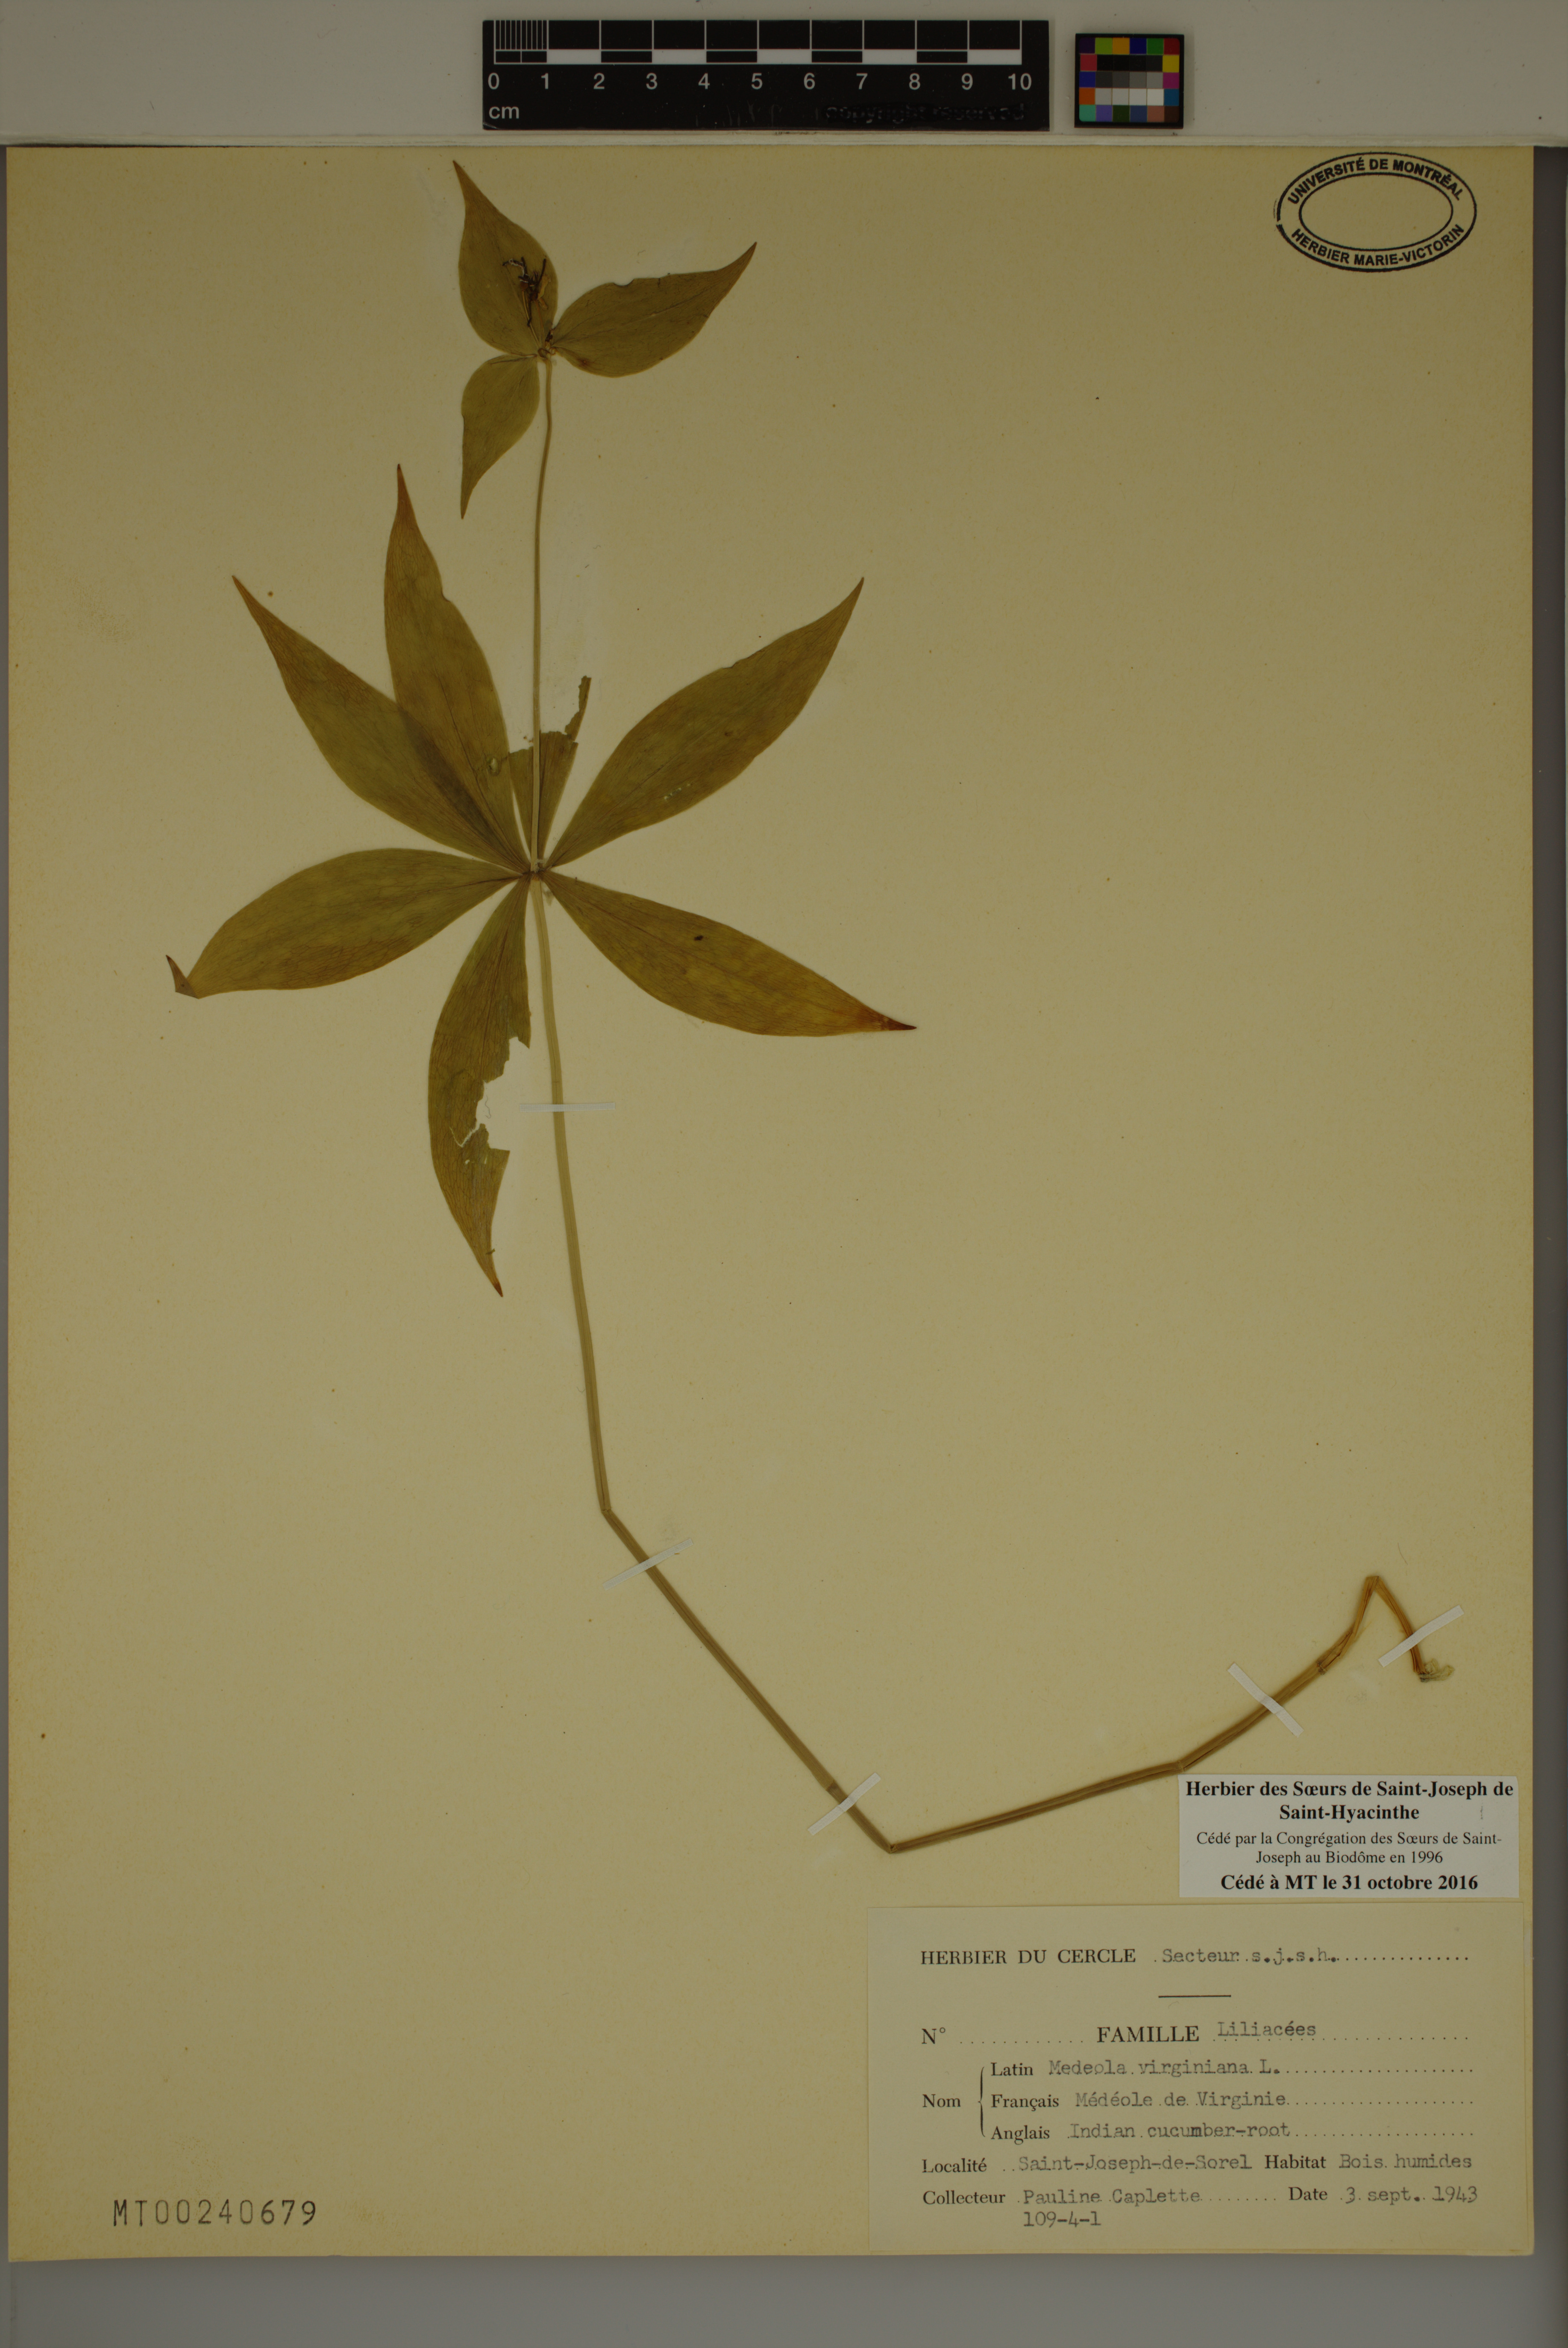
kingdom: Plantae
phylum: Tracheophyta
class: Liliopsida
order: Liliales
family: Liliaceae
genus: Medeola
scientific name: Medeola virginiana
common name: Indian cucumber-root
